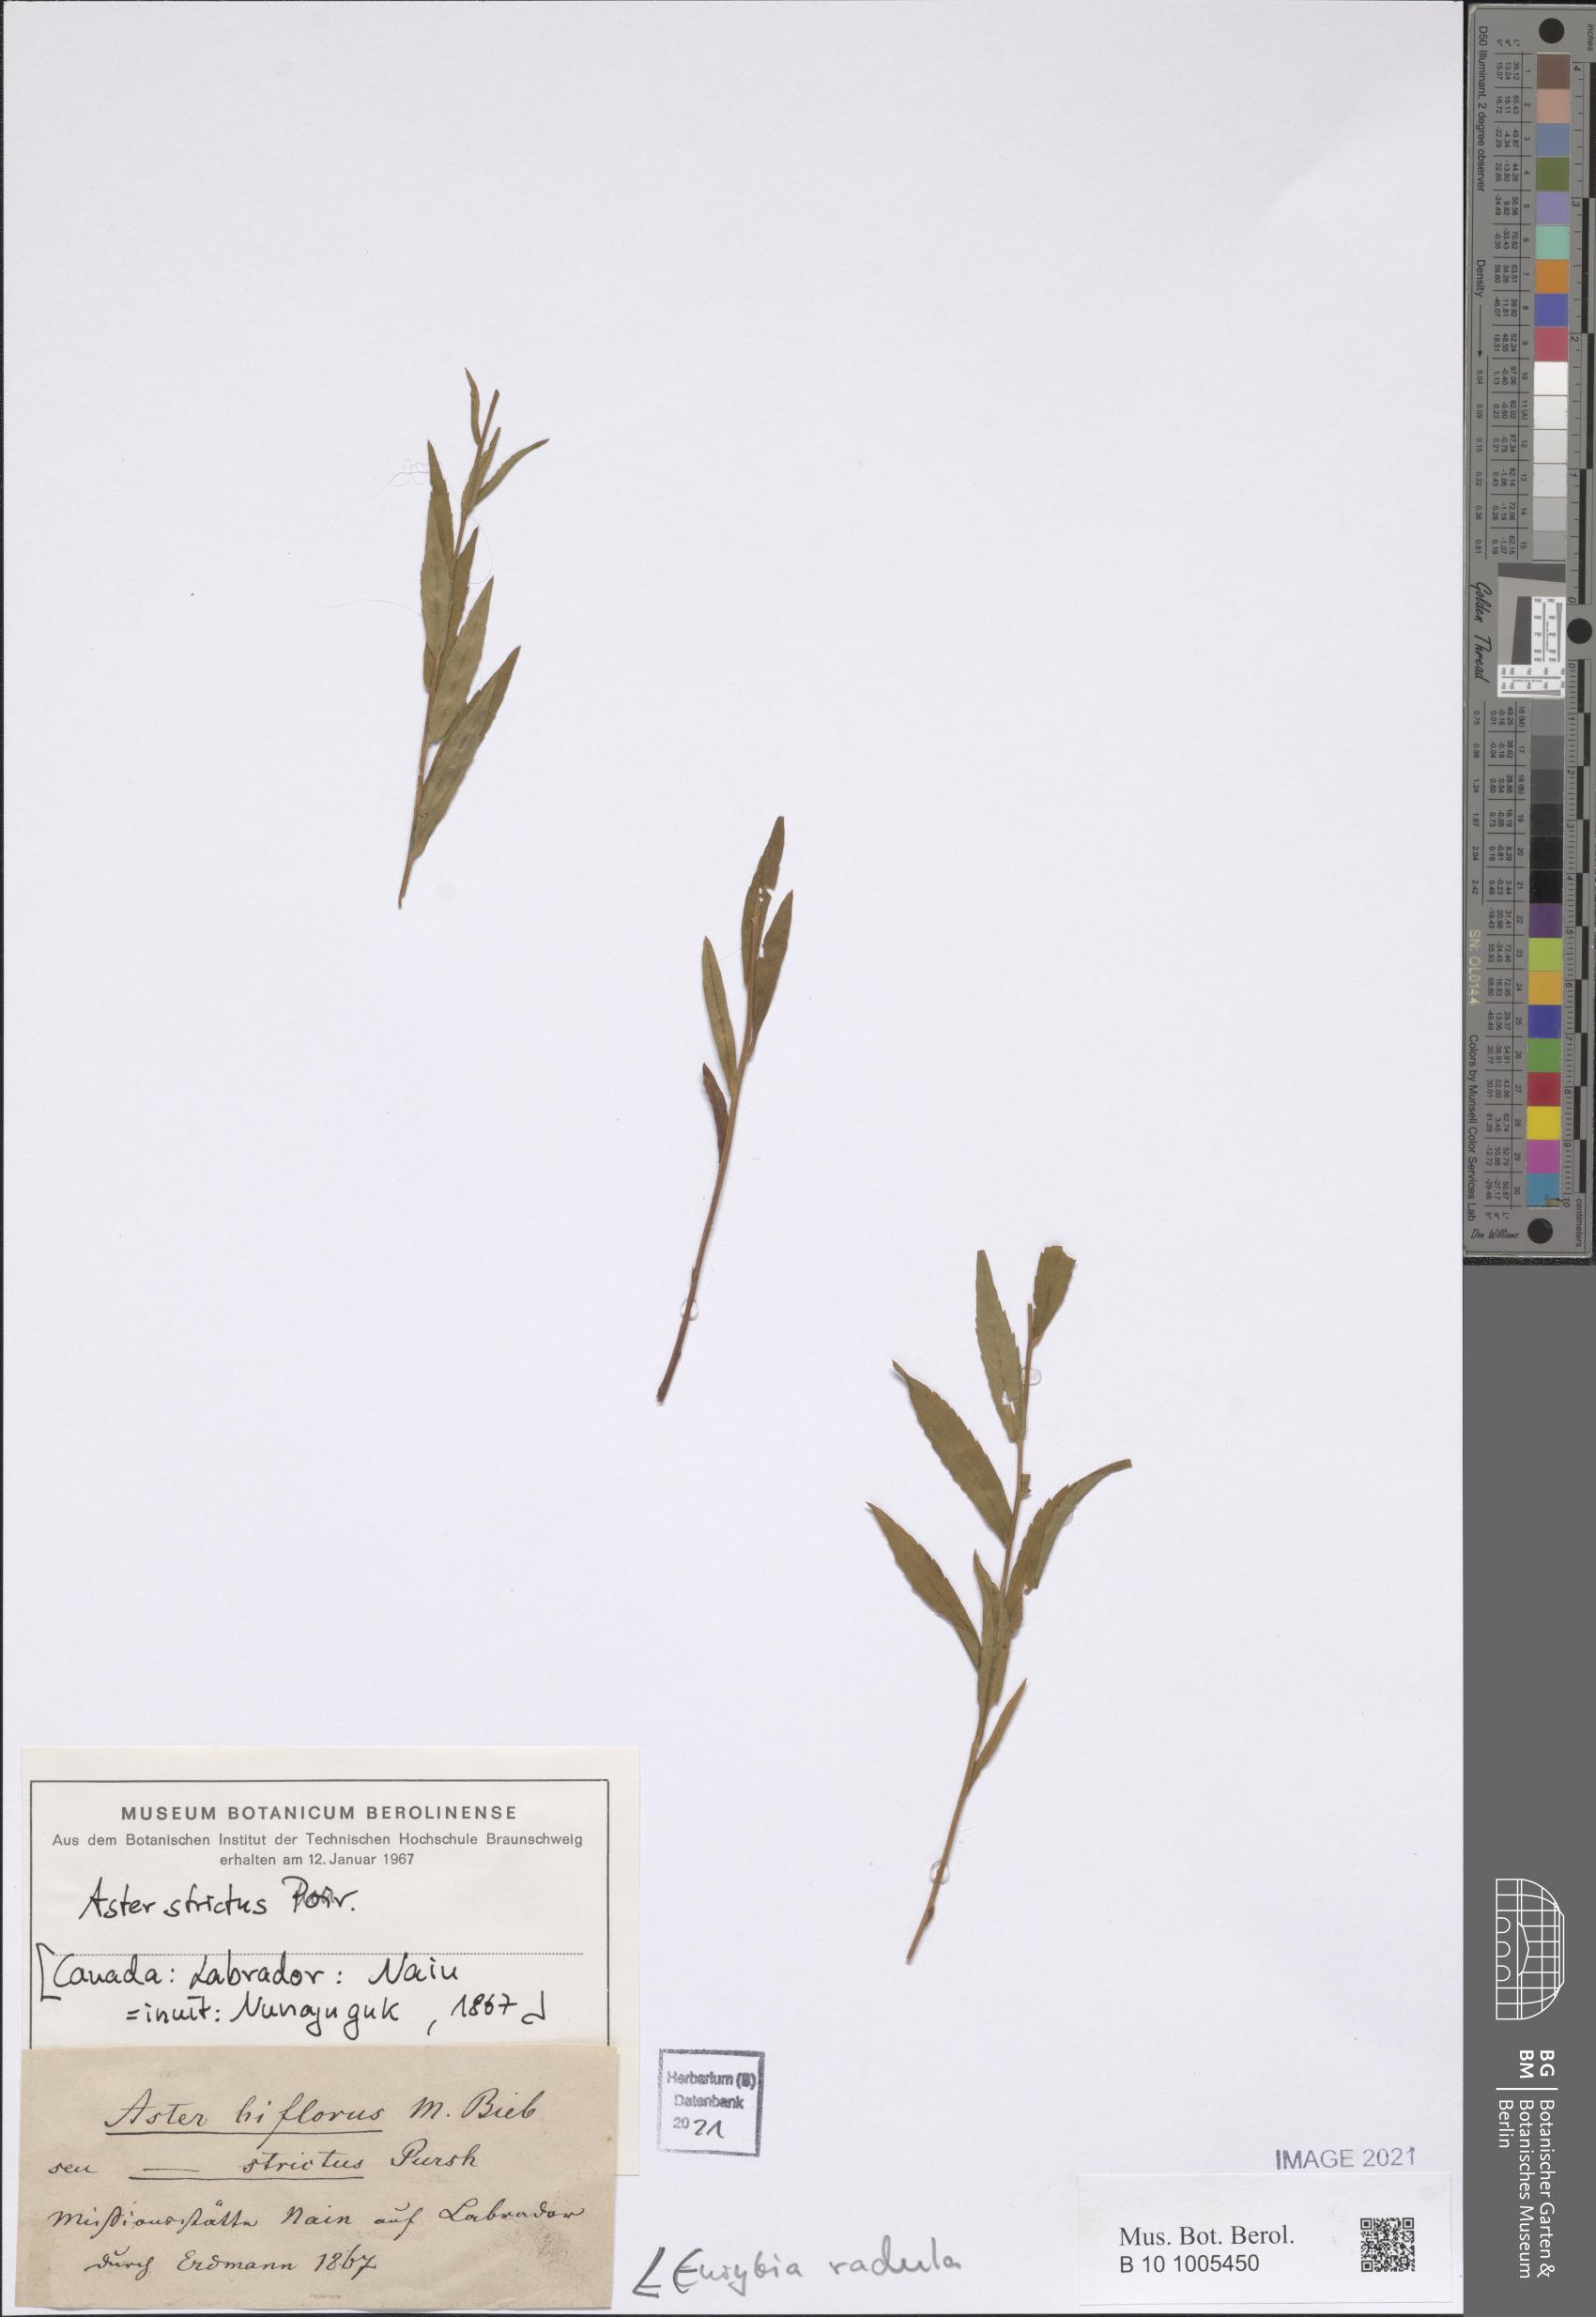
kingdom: Plantae
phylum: Tracheophyta
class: Magnoliopsida
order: Asterales
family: Asteraceae
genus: Eurybia
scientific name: Eurybia radula
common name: Low rough aster
